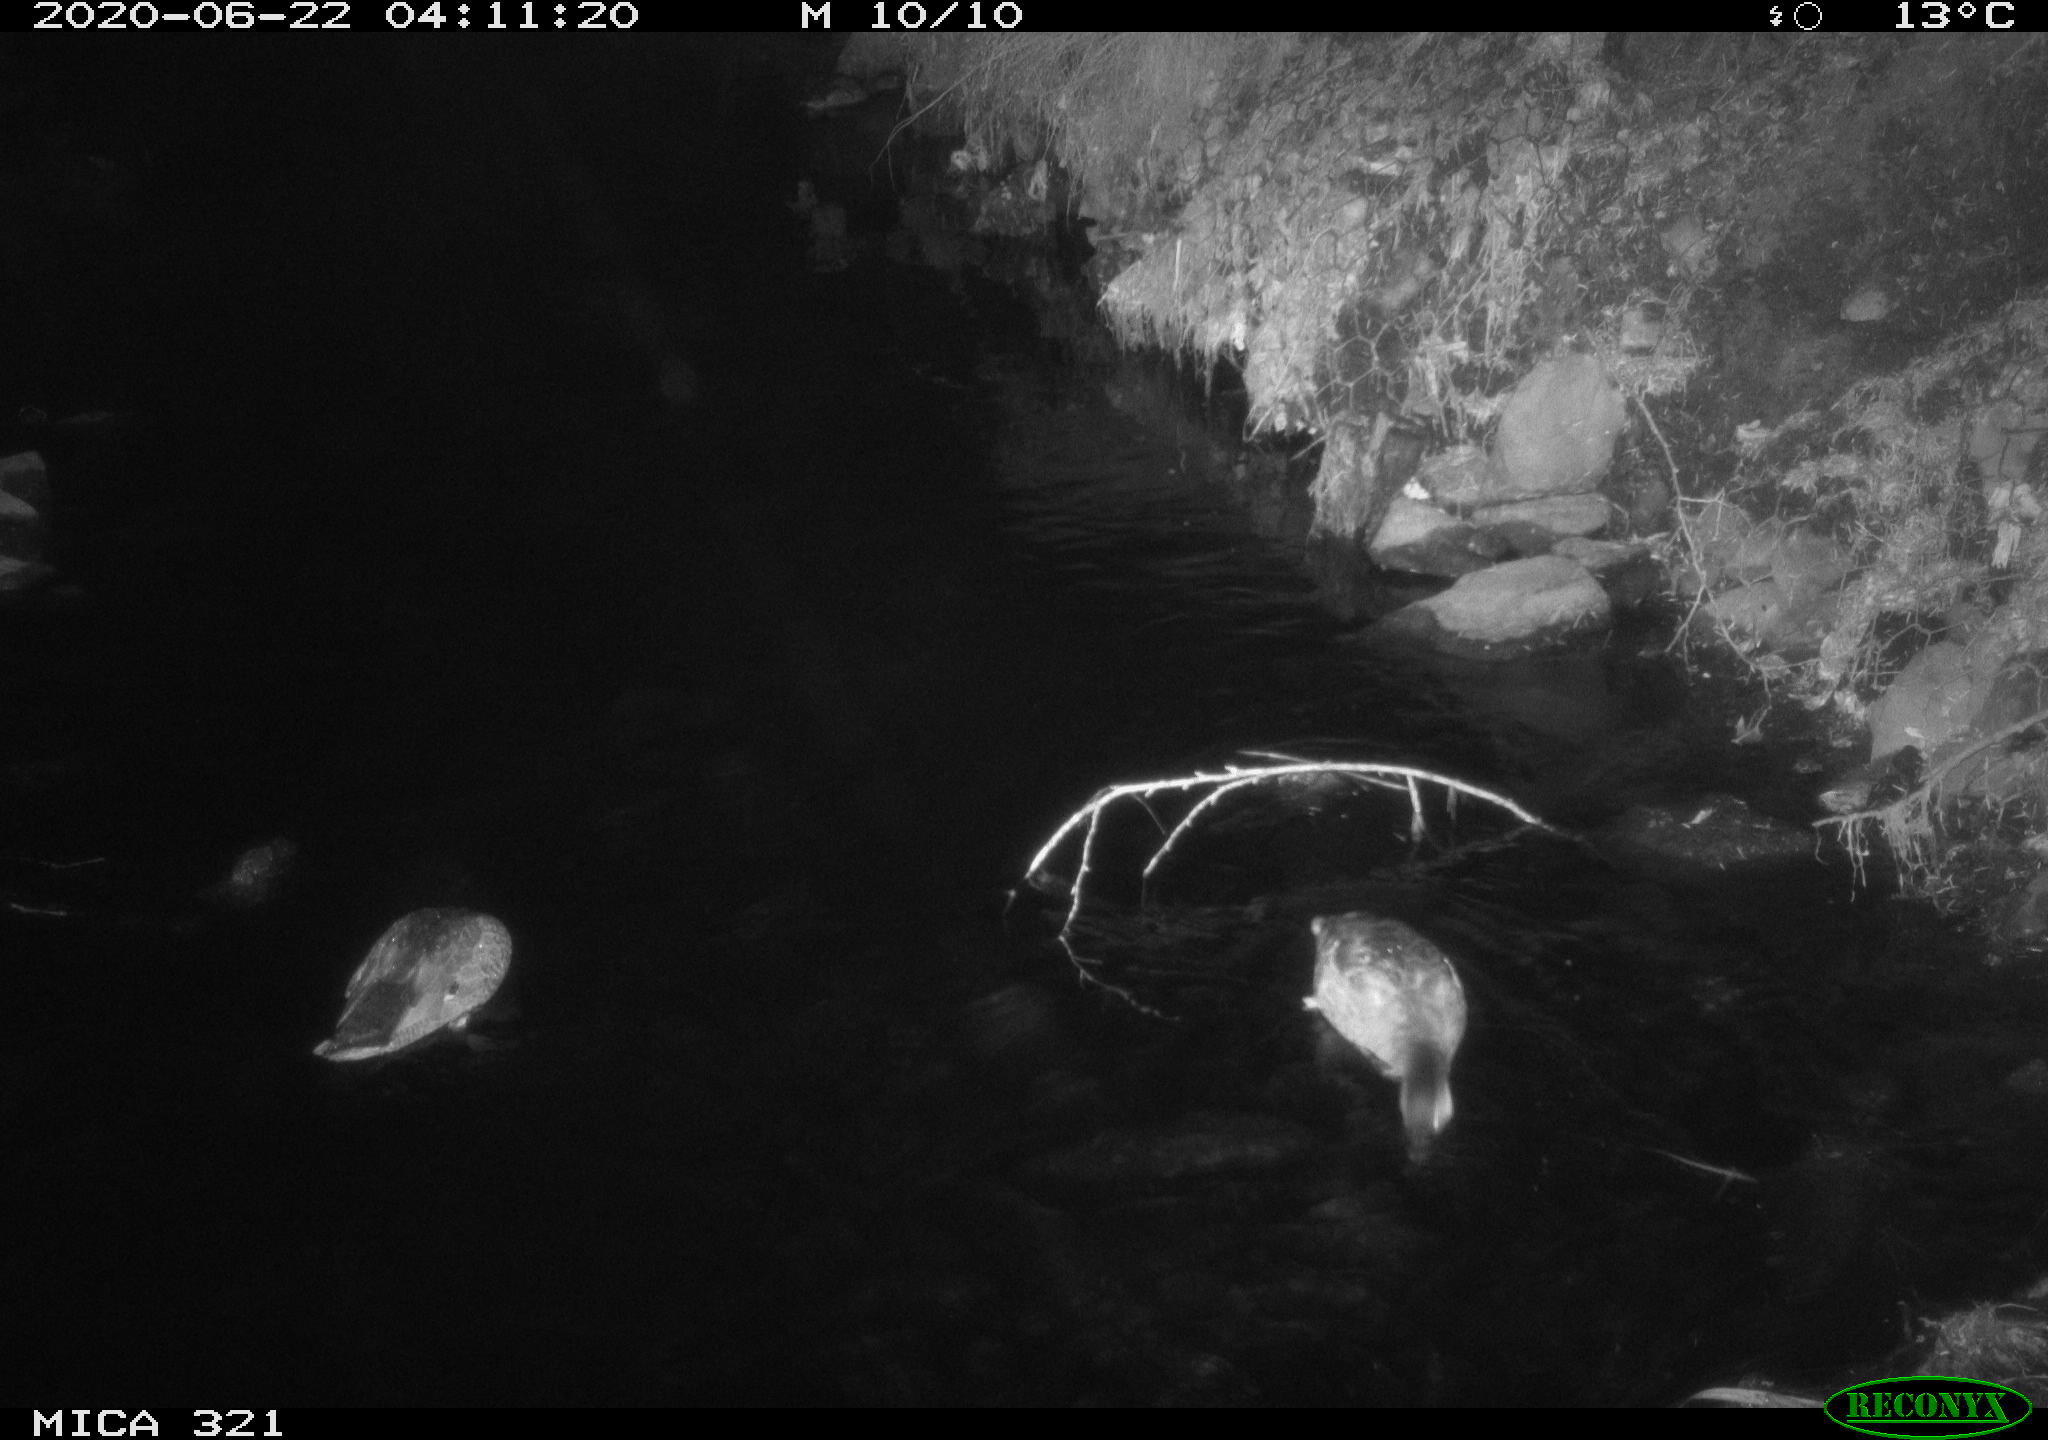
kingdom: Animalia
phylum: Chordata
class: Aves
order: Anseriformes
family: Anatidae
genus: Anas
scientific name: Anas platyrhynchos
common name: Mallard
